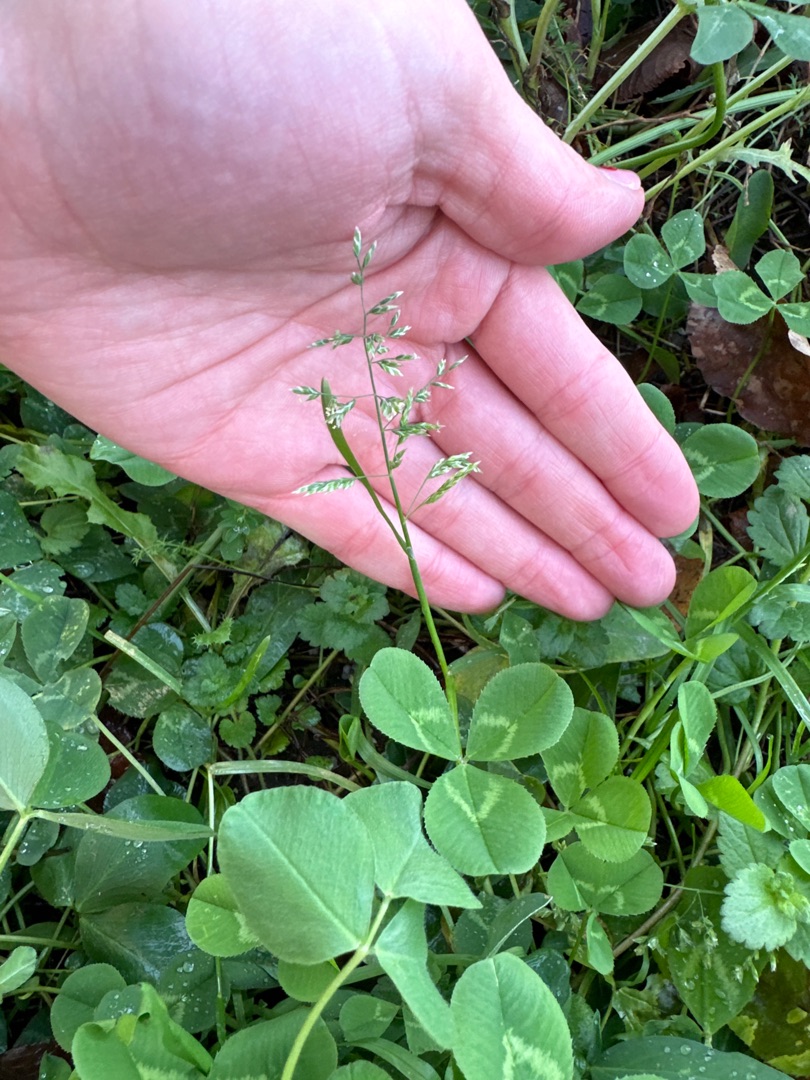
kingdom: Plantae
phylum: Tracheophyta
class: Liliopsida
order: Poales
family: Poaceae
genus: Poa
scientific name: Poa annua
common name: Enårig rapgræs
